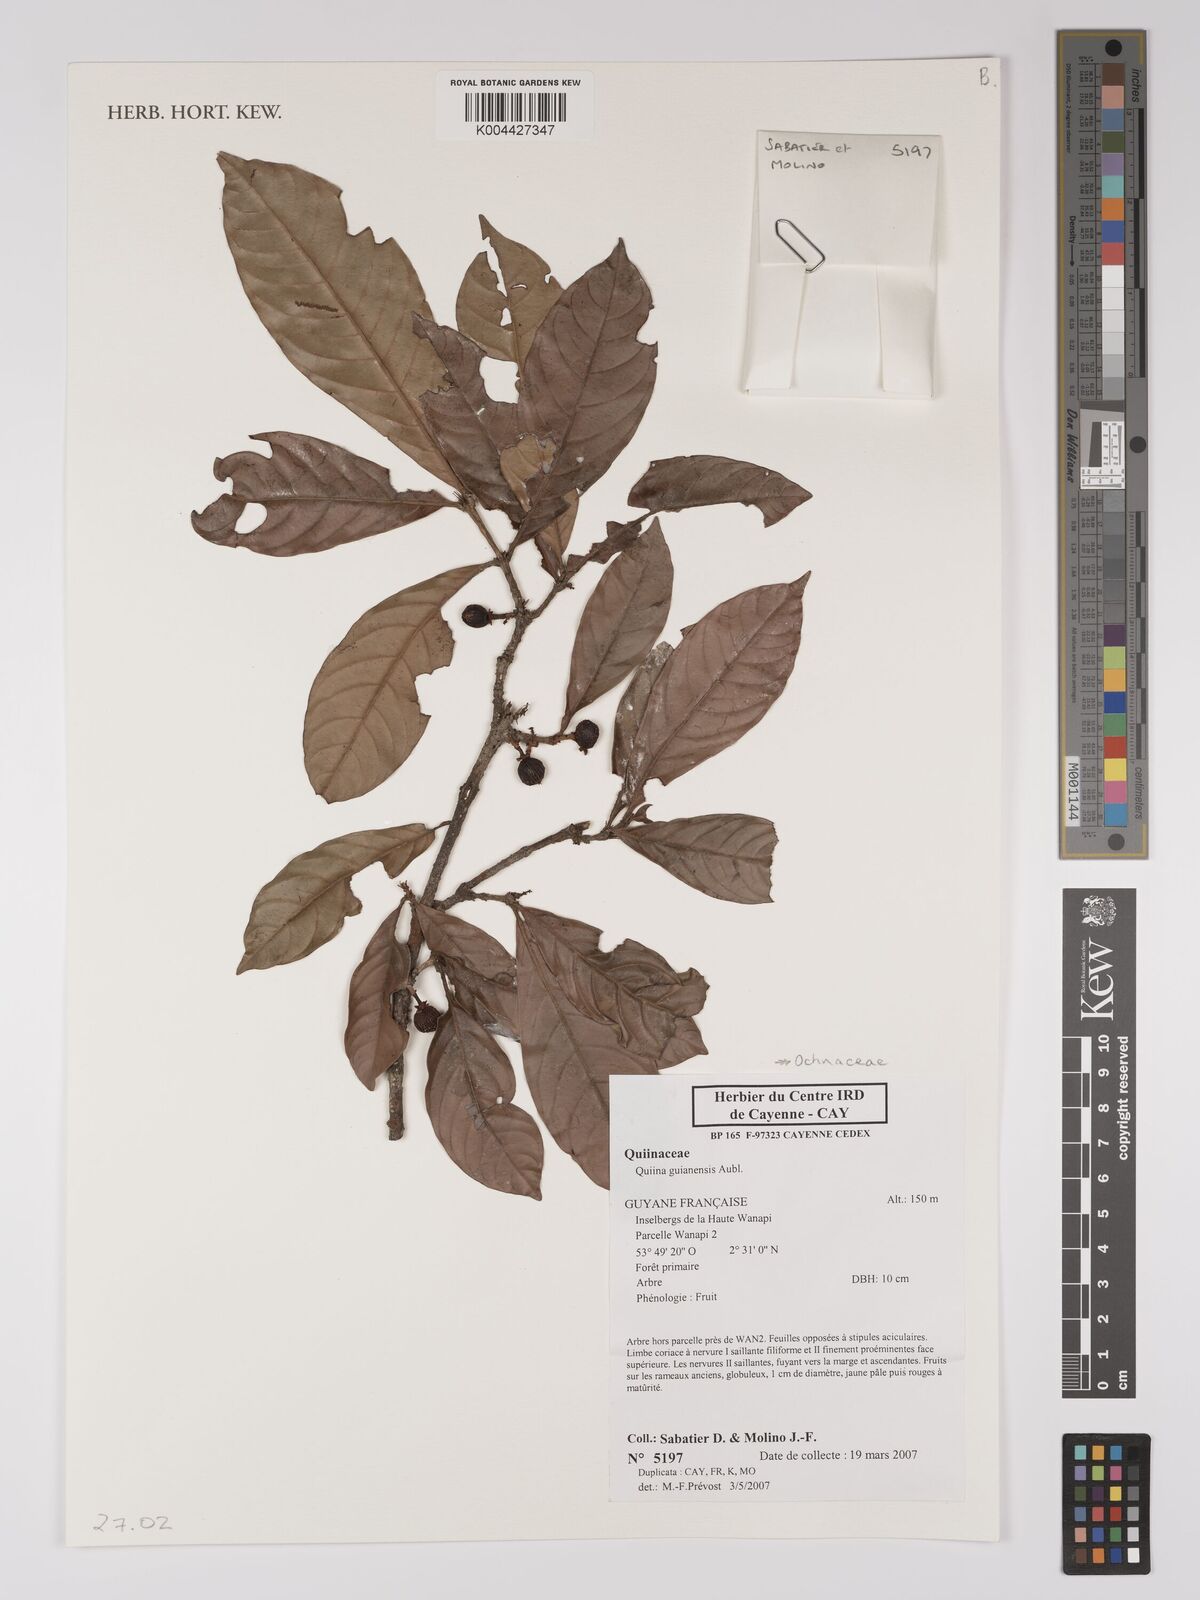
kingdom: Plantae
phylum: Tracheophyta
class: Magnoliopsida
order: Malpighiales
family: Quiinaceae
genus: Quiina
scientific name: Quiina guianensis
